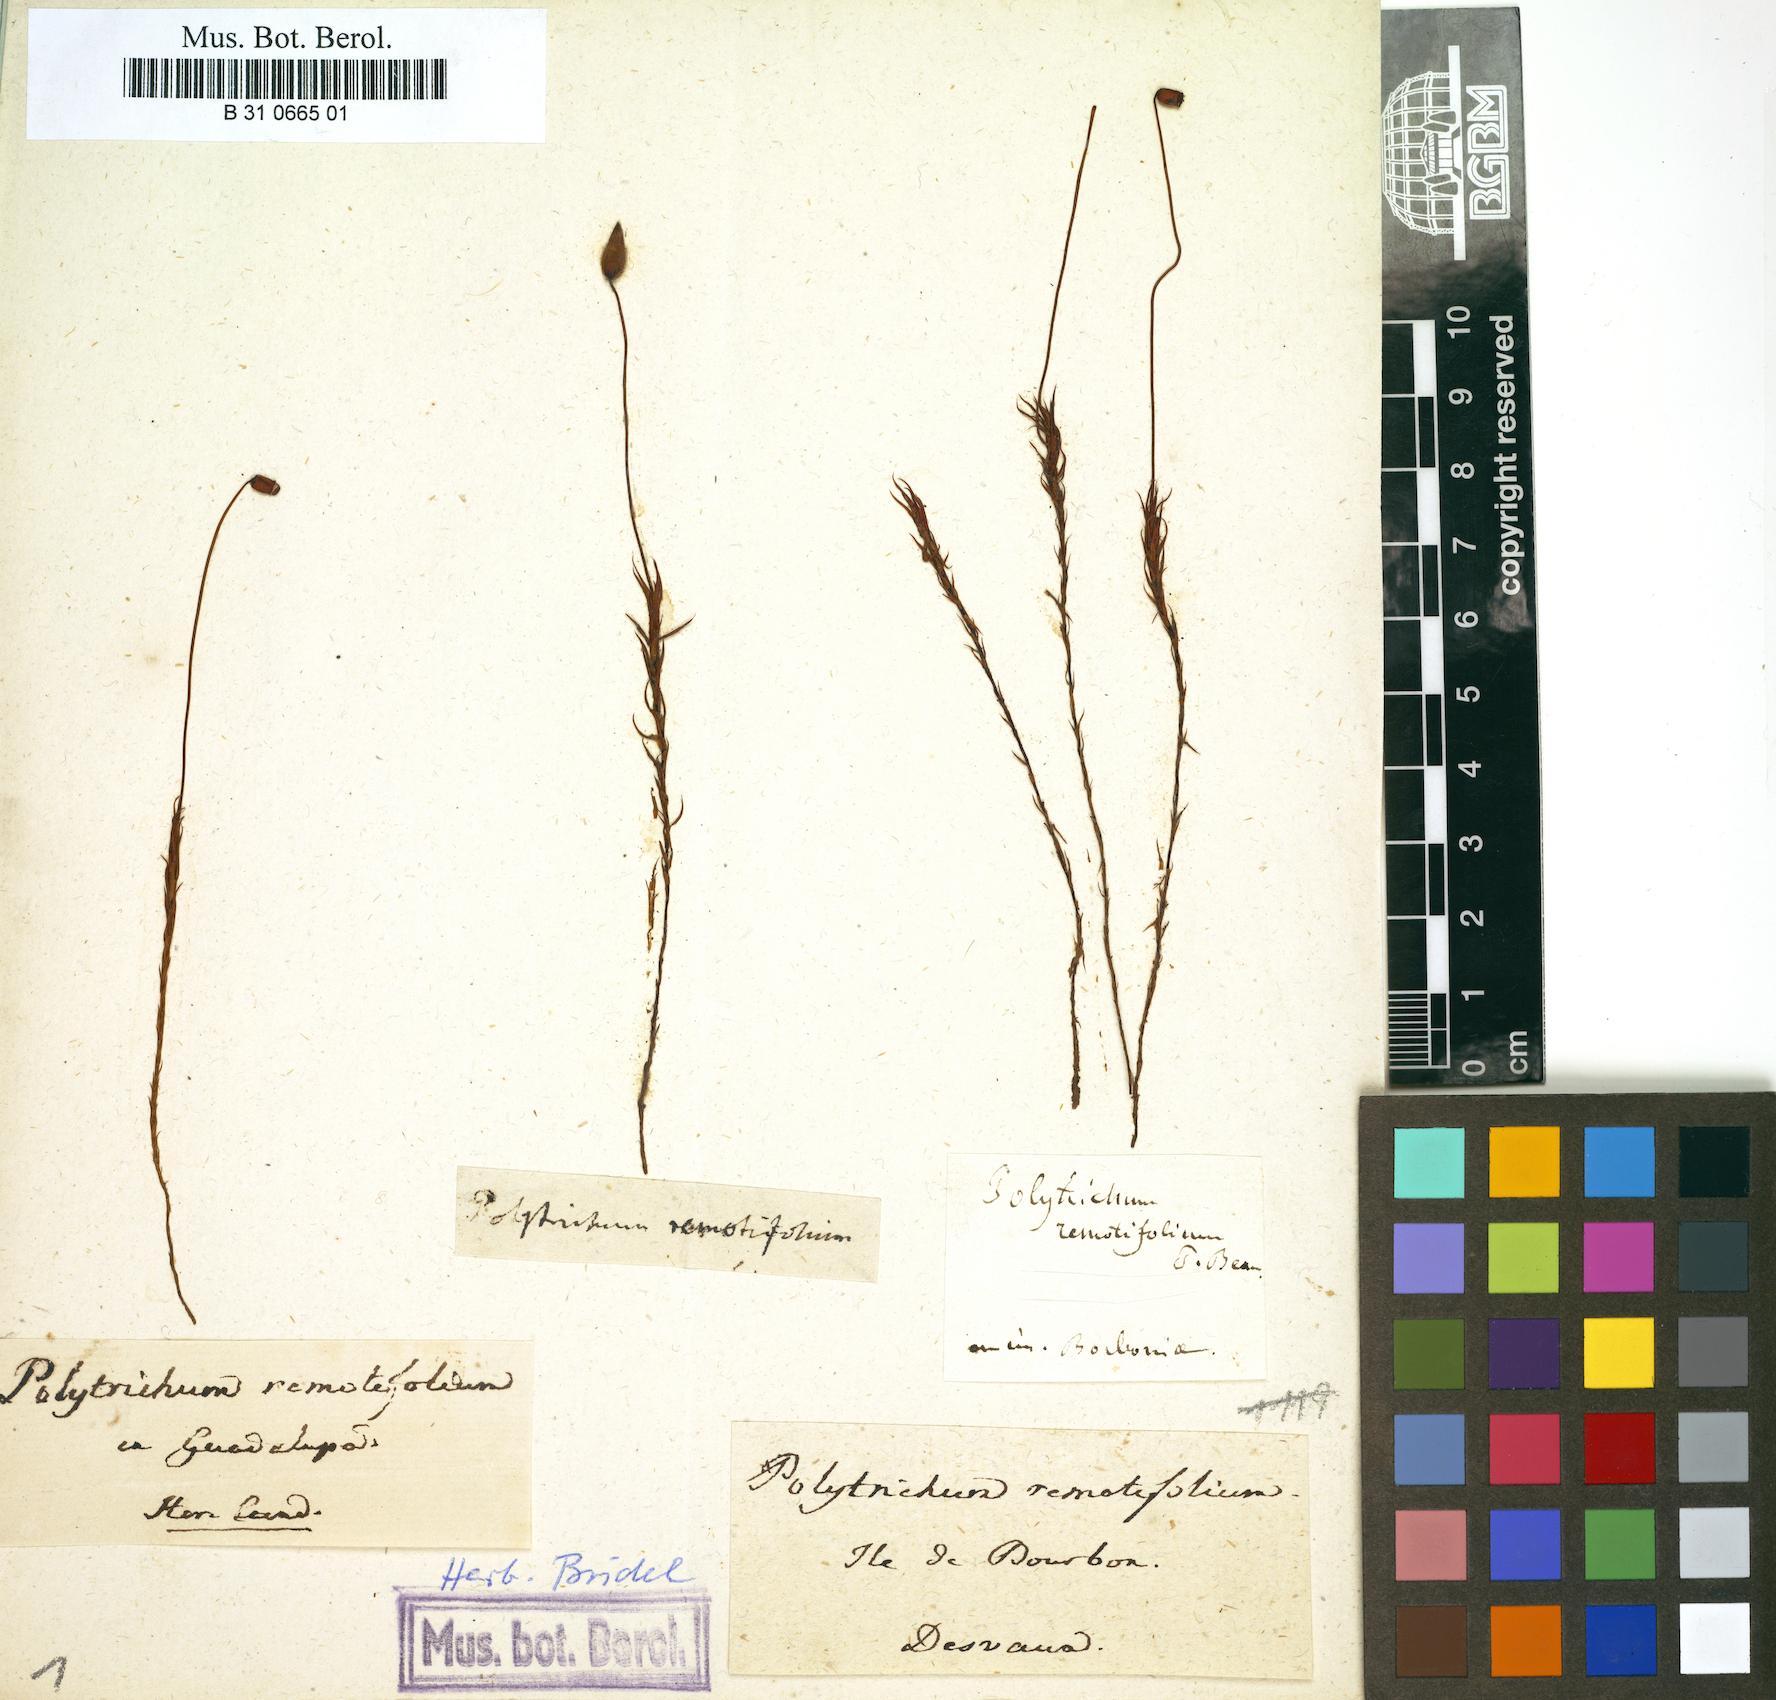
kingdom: Plantae
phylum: Bryophyta
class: Polytrichopsida
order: Polytrichales
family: Polytrichaceae
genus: Polytrichum
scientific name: Polytrichum commune
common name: Common haircap
